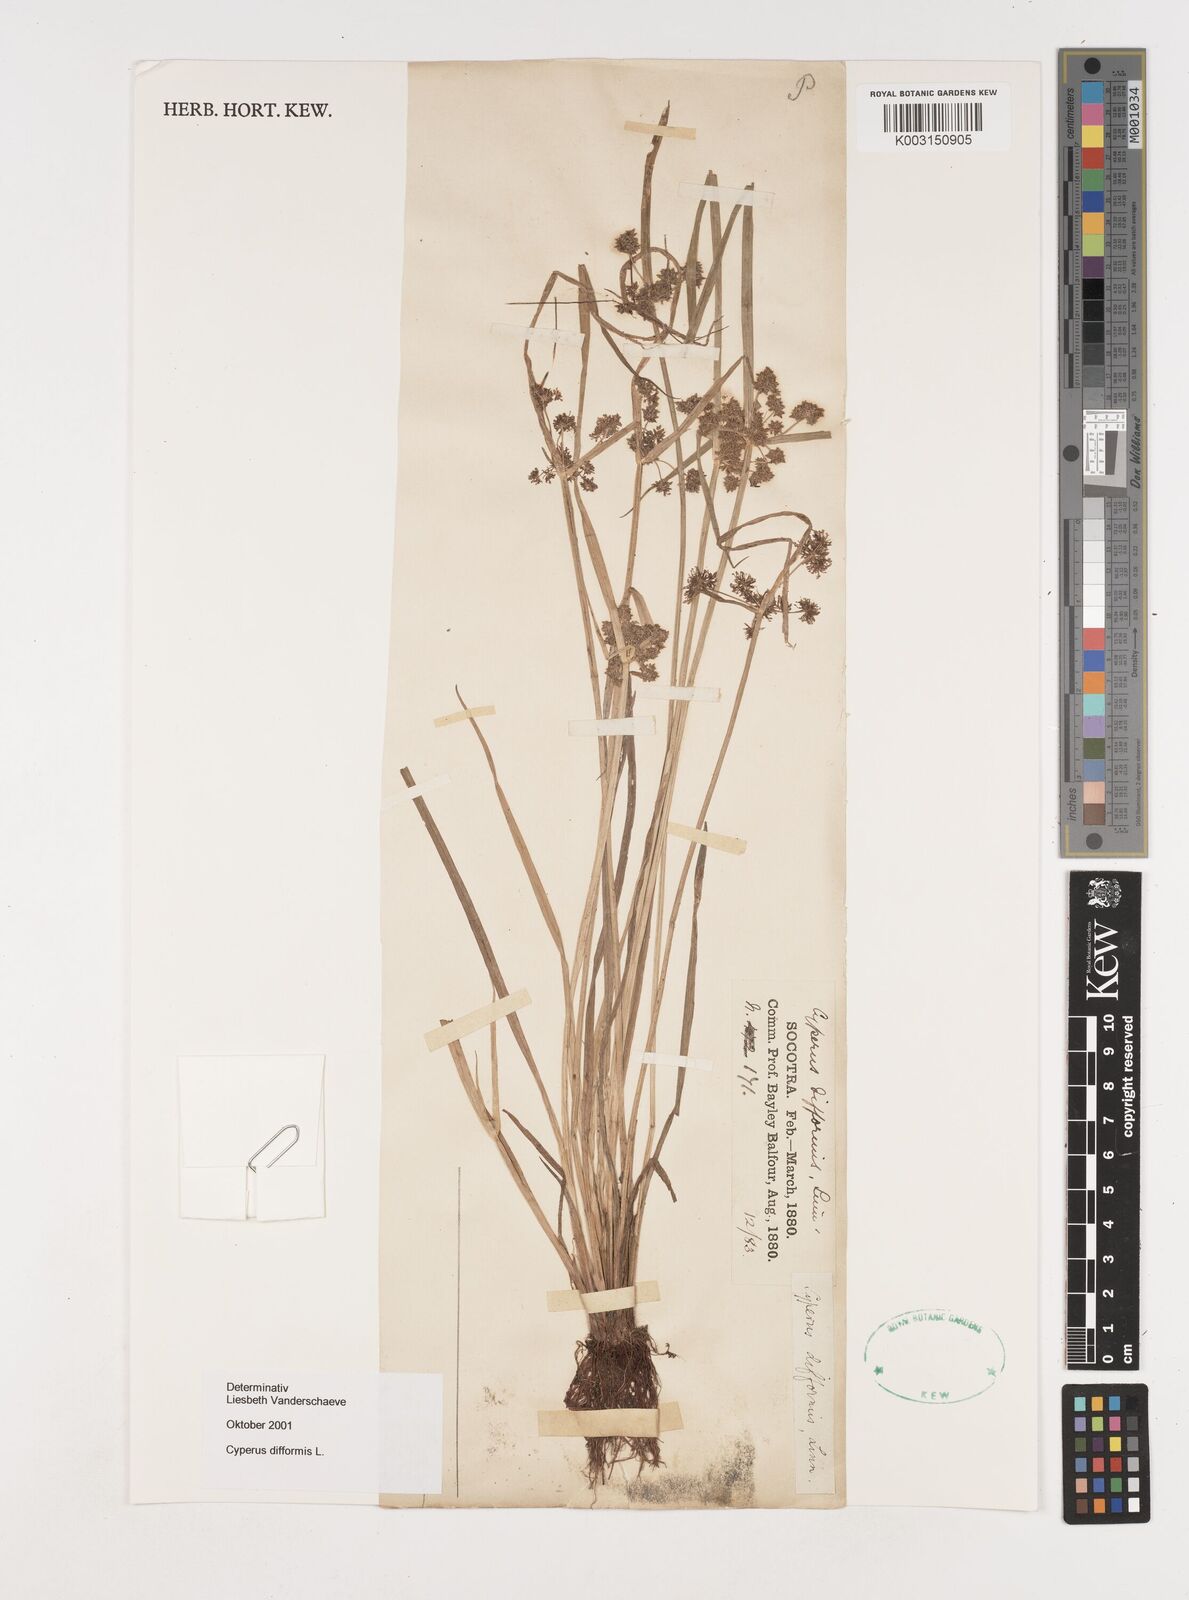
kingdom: Plantae
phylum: Tracheophyta
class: Liliopsida
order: Poales
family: Cyperaceae
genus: Cyperus
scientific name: Cyperus difformis
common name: Variable flatsedge
